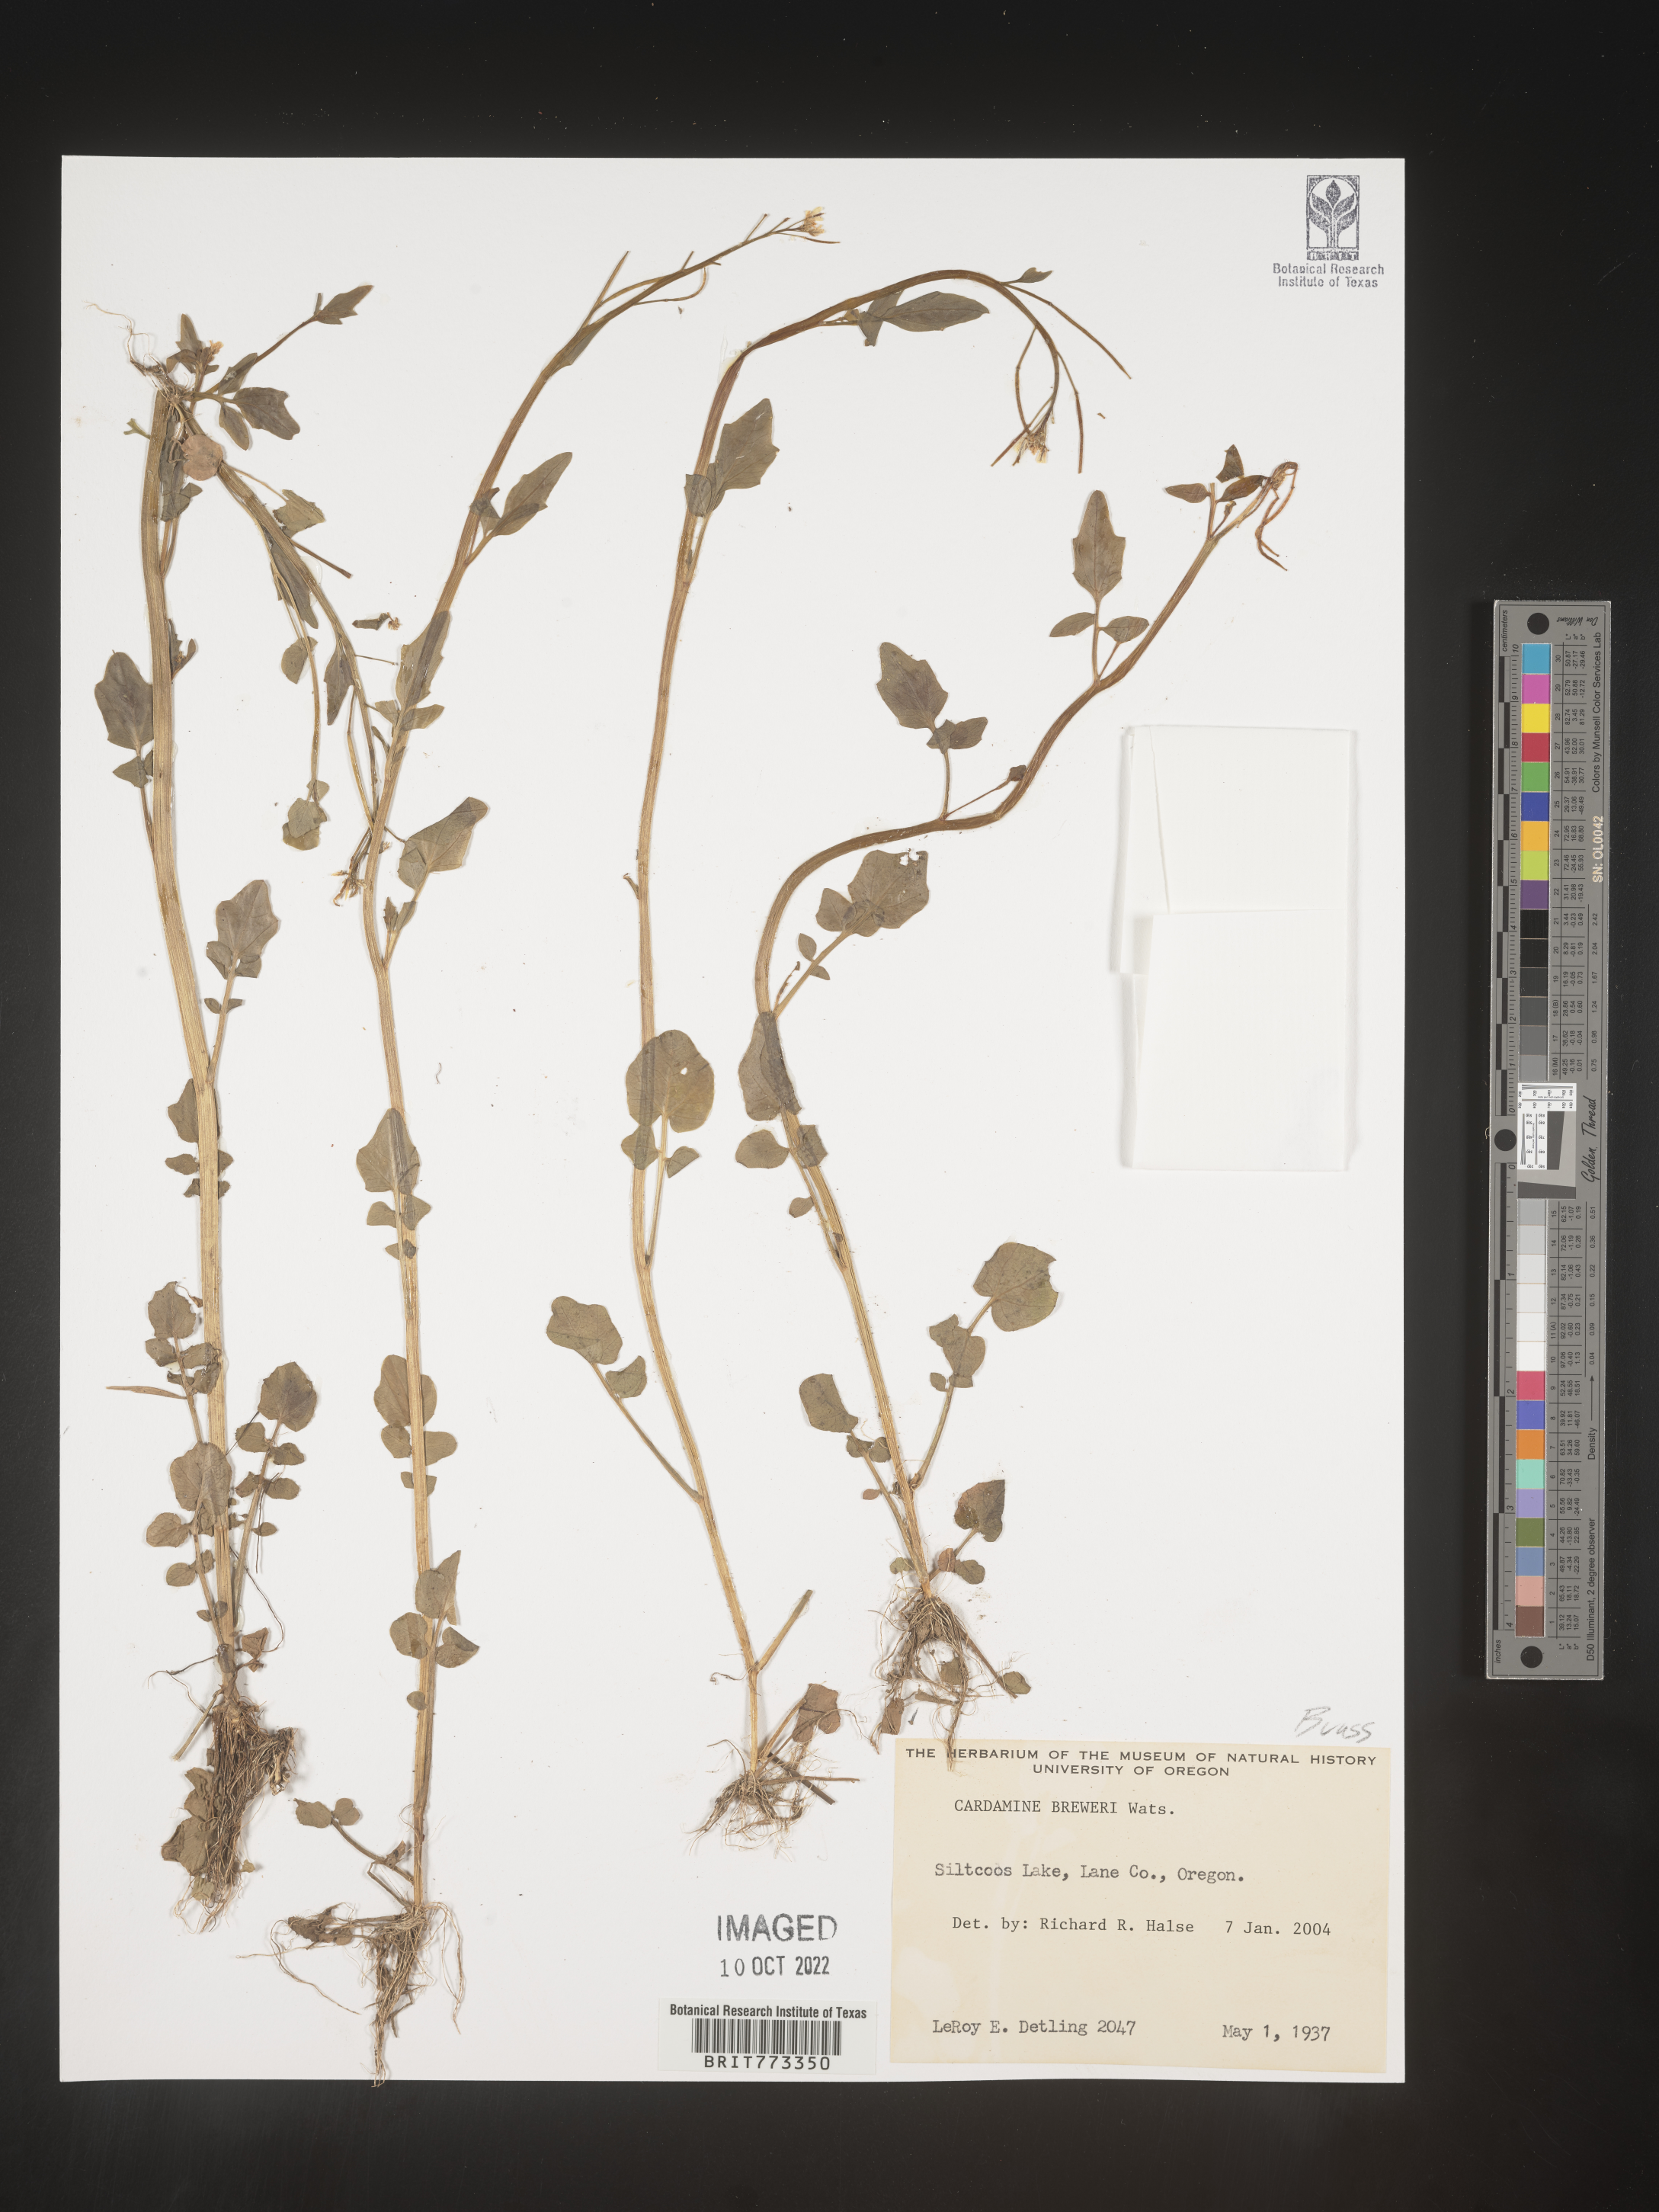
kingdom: Plantae
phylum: Tracheophyta
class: Magnoliopsida
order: Brassicales
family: Brassicaceae
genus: Cardamine
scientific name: Cardamine
